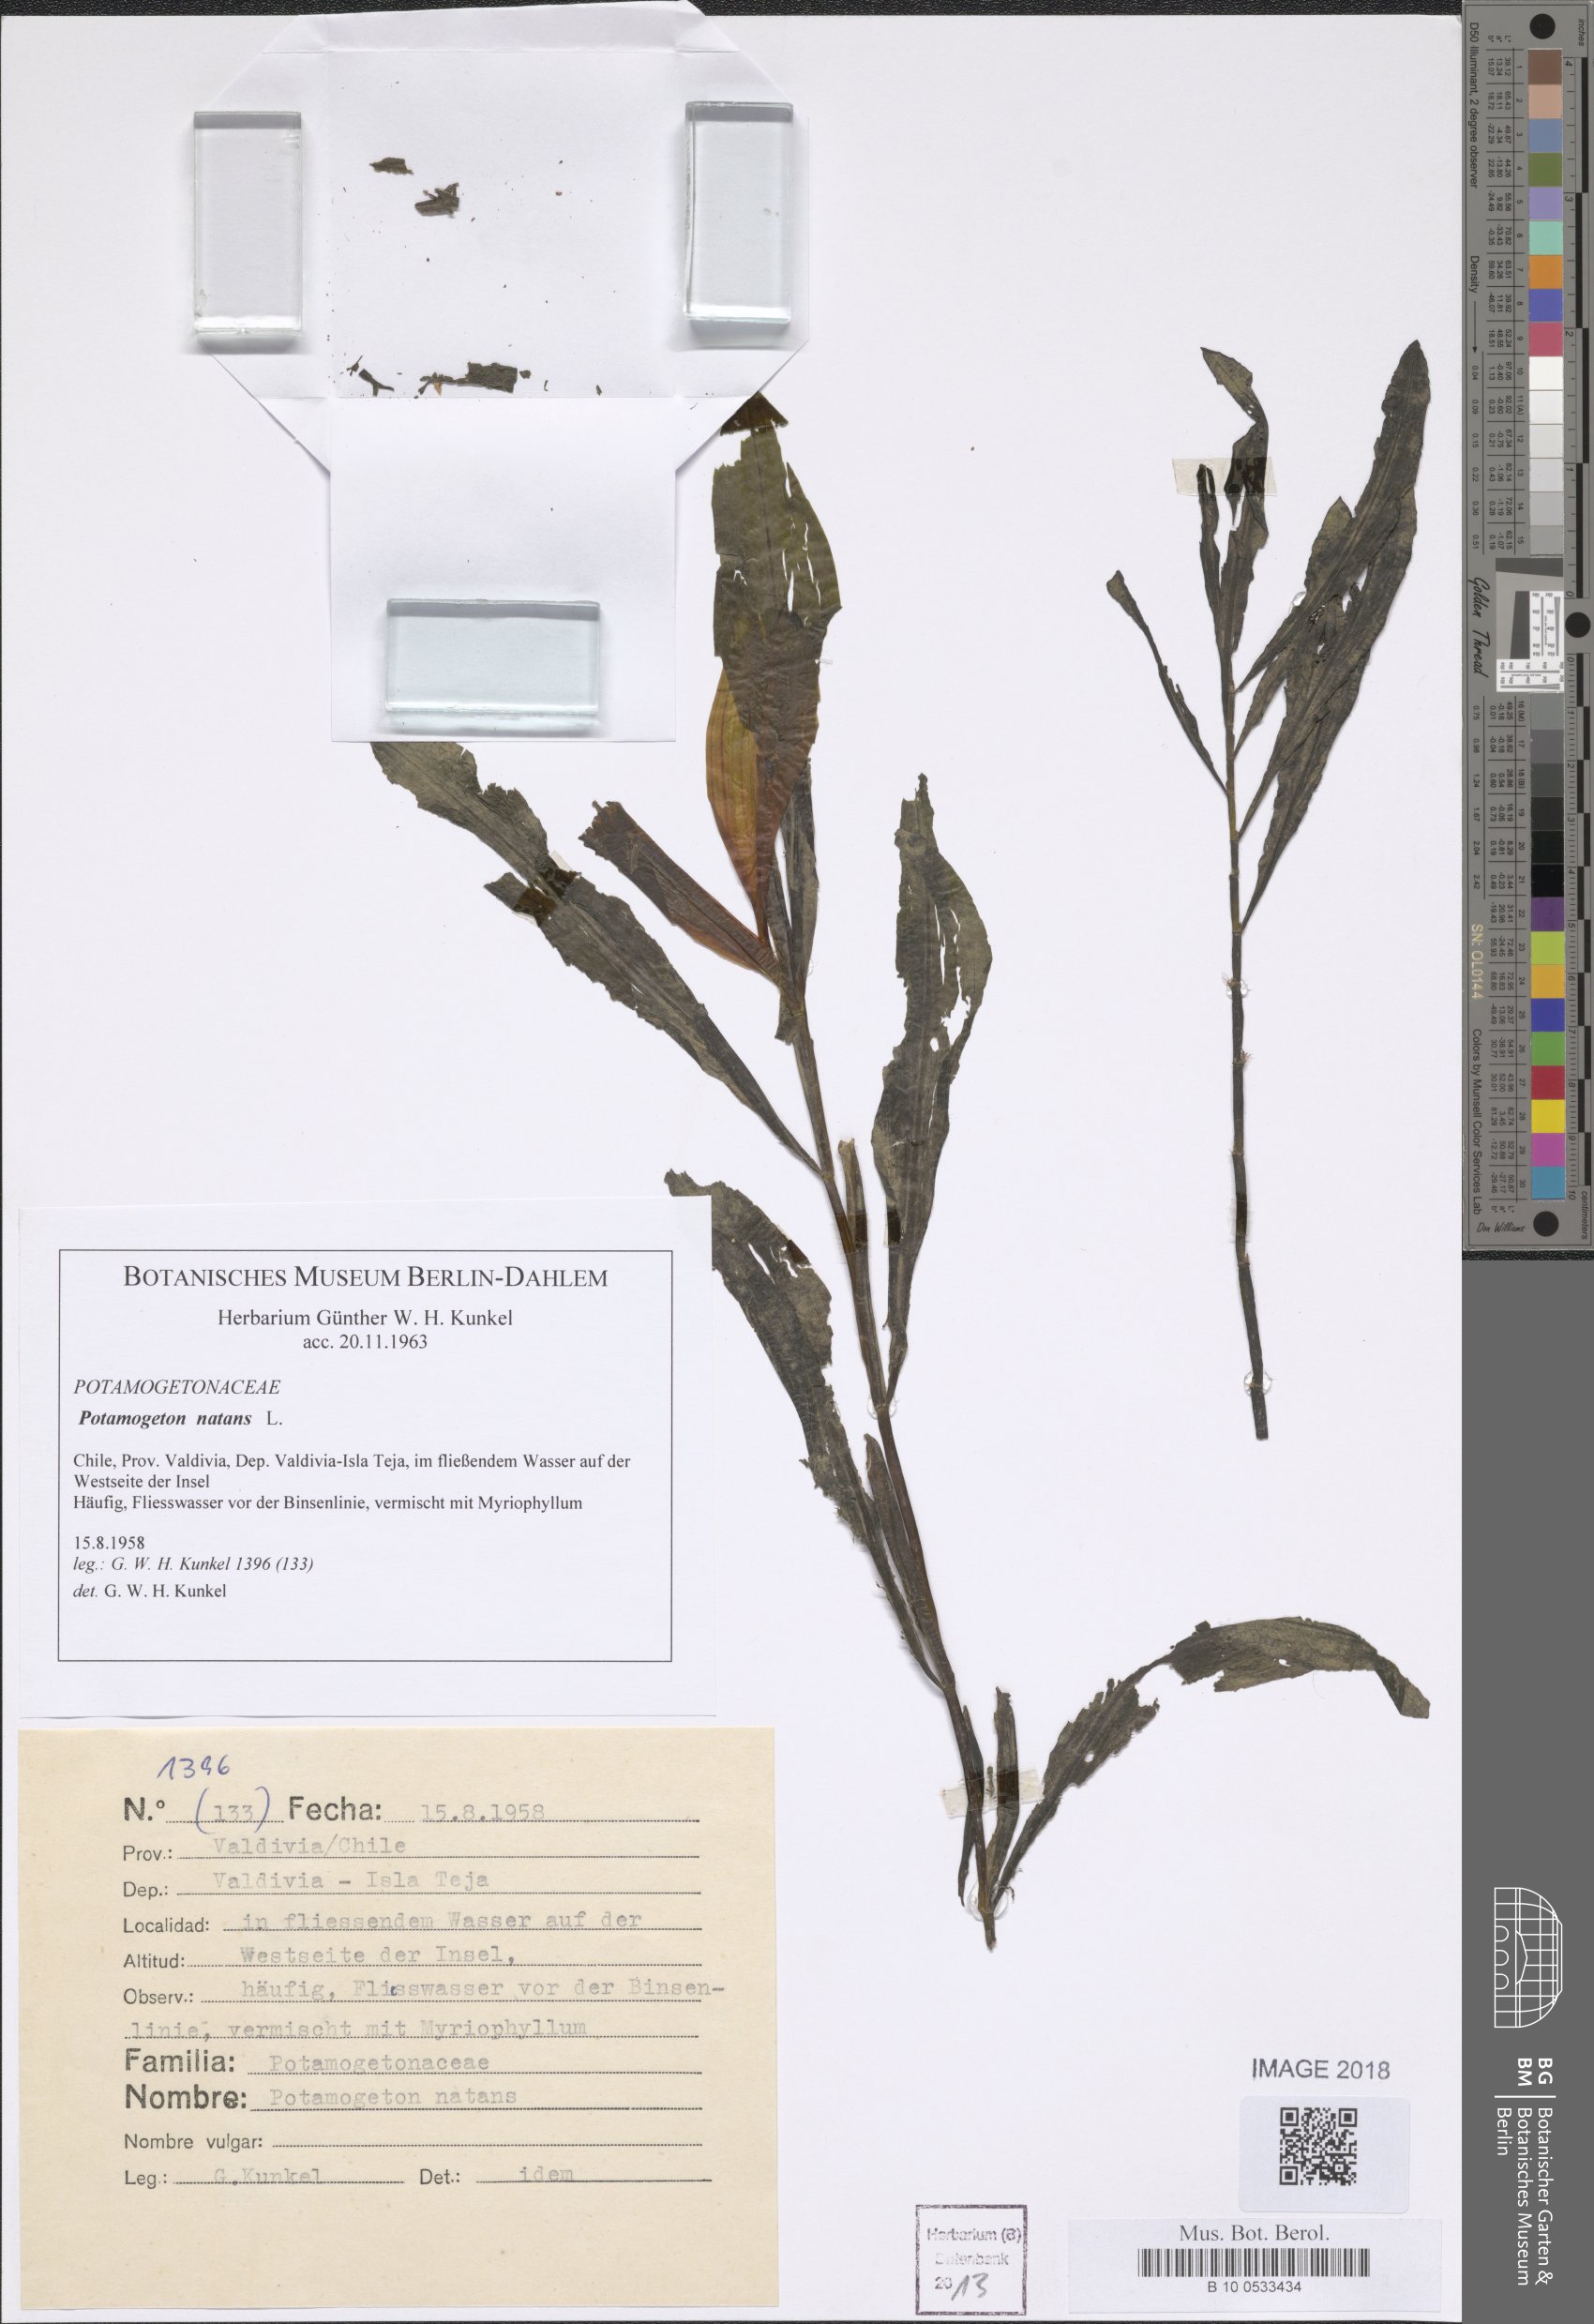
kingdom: Plantae
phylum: Tracheophyta
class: Liliopsida
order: Alismatales
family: Potamogetonaceae
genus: Potamogeton
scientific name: Potamogeton natans
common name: Broad-leaved pondweed
